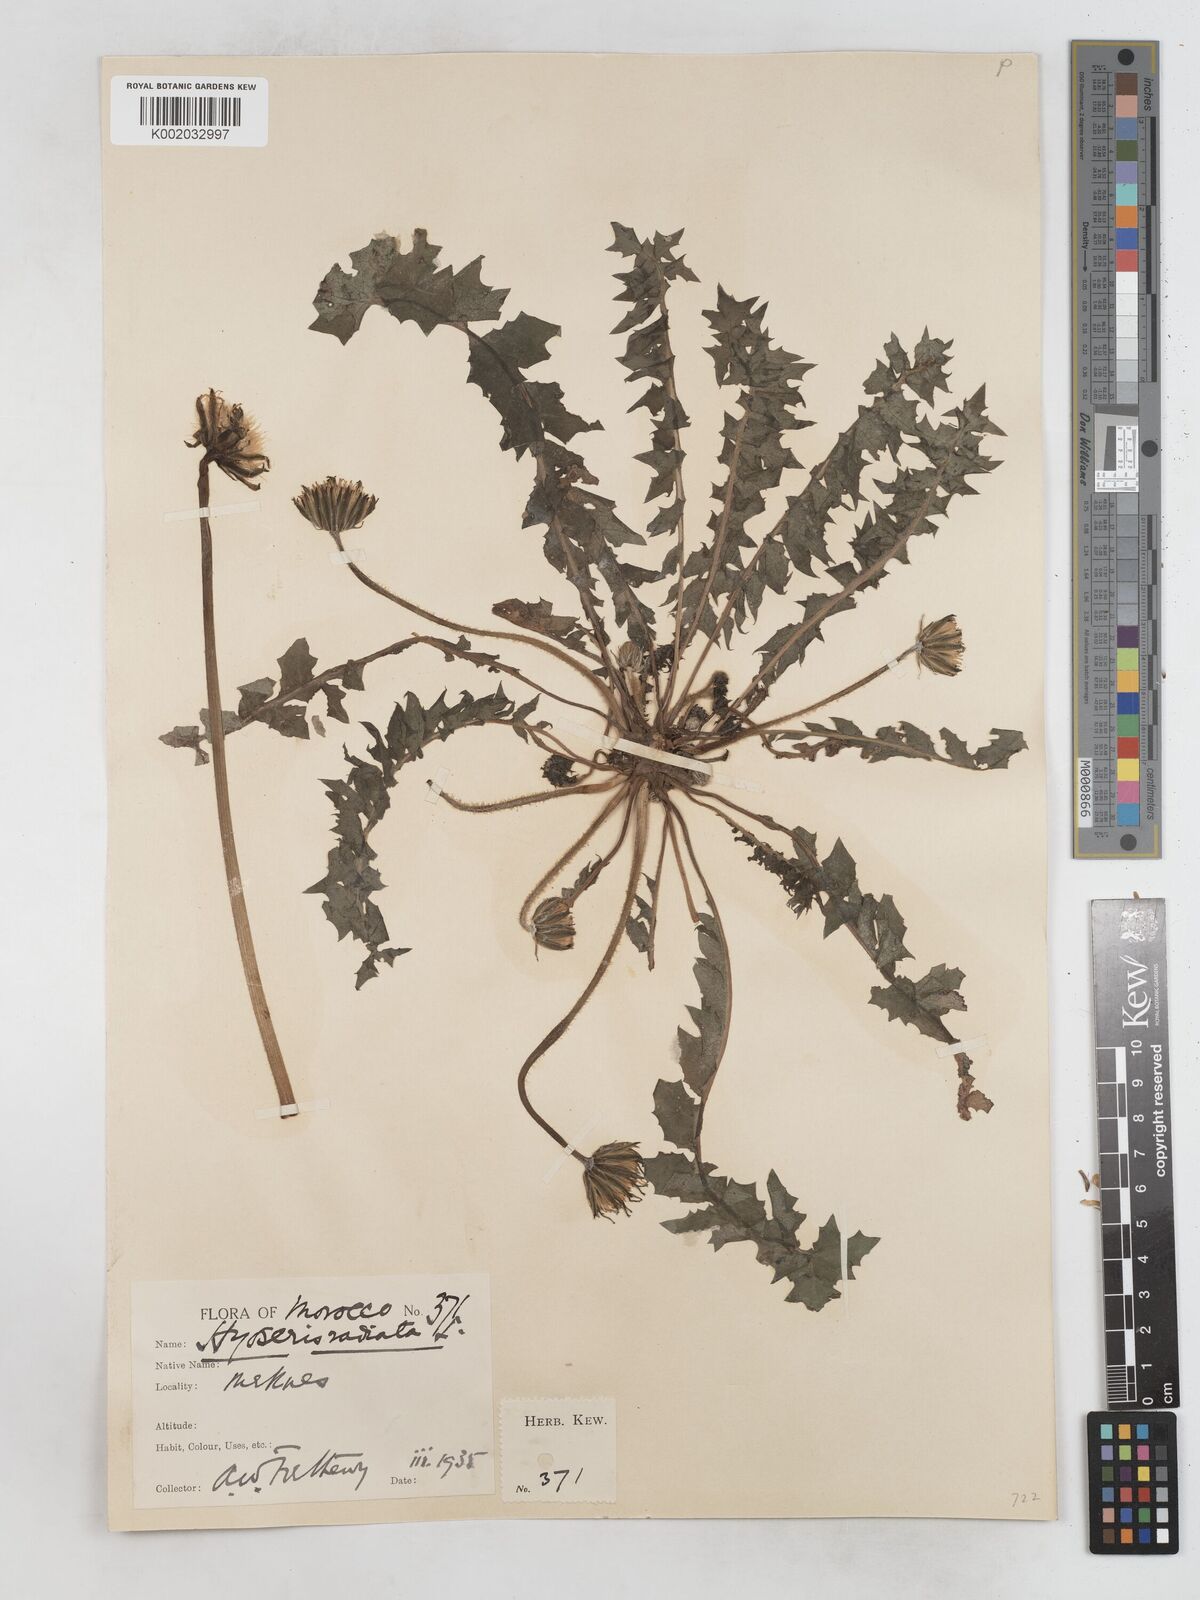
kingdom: Plantae
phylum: Tracheophyta
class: Magnoliopsida
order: Asterales
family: Asteraceae
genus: Hyoseris
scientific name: Hyoseris radiata
